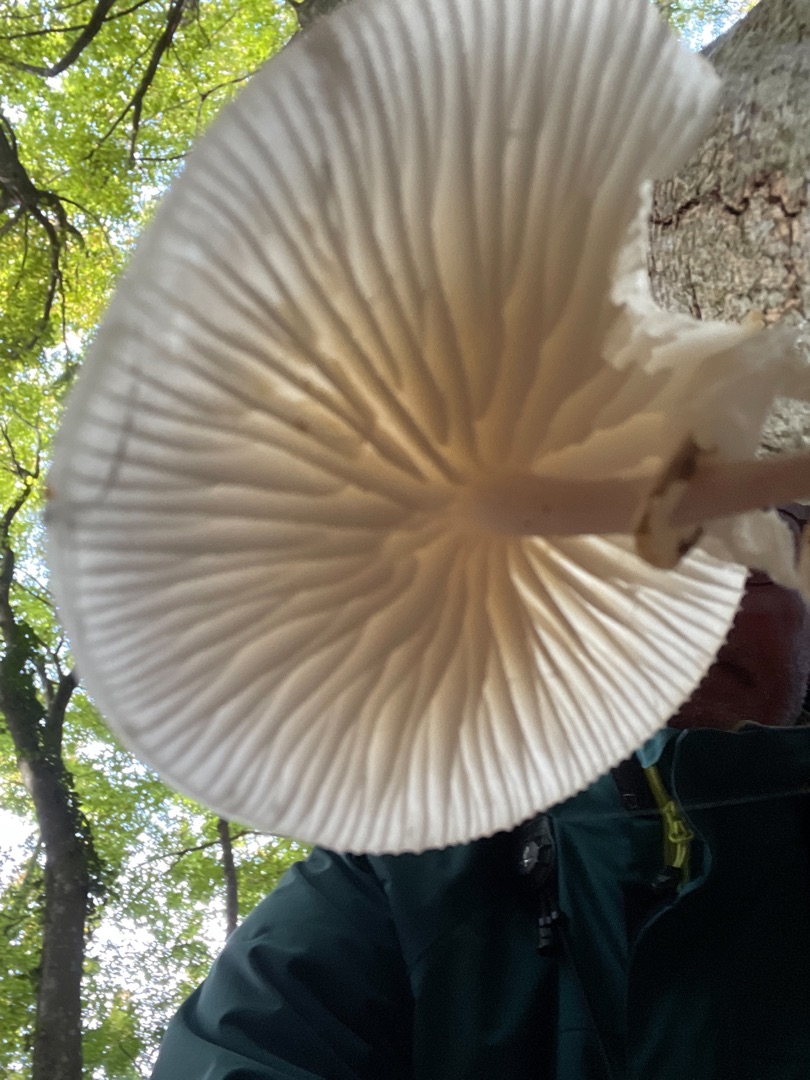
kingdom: Fungi
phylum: Basidiomycota
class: Agaricomycetes
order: Agaricales
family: Physalacriaceae
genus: Mucidula
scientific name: Mucidula mucida
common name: Porcelænshat
